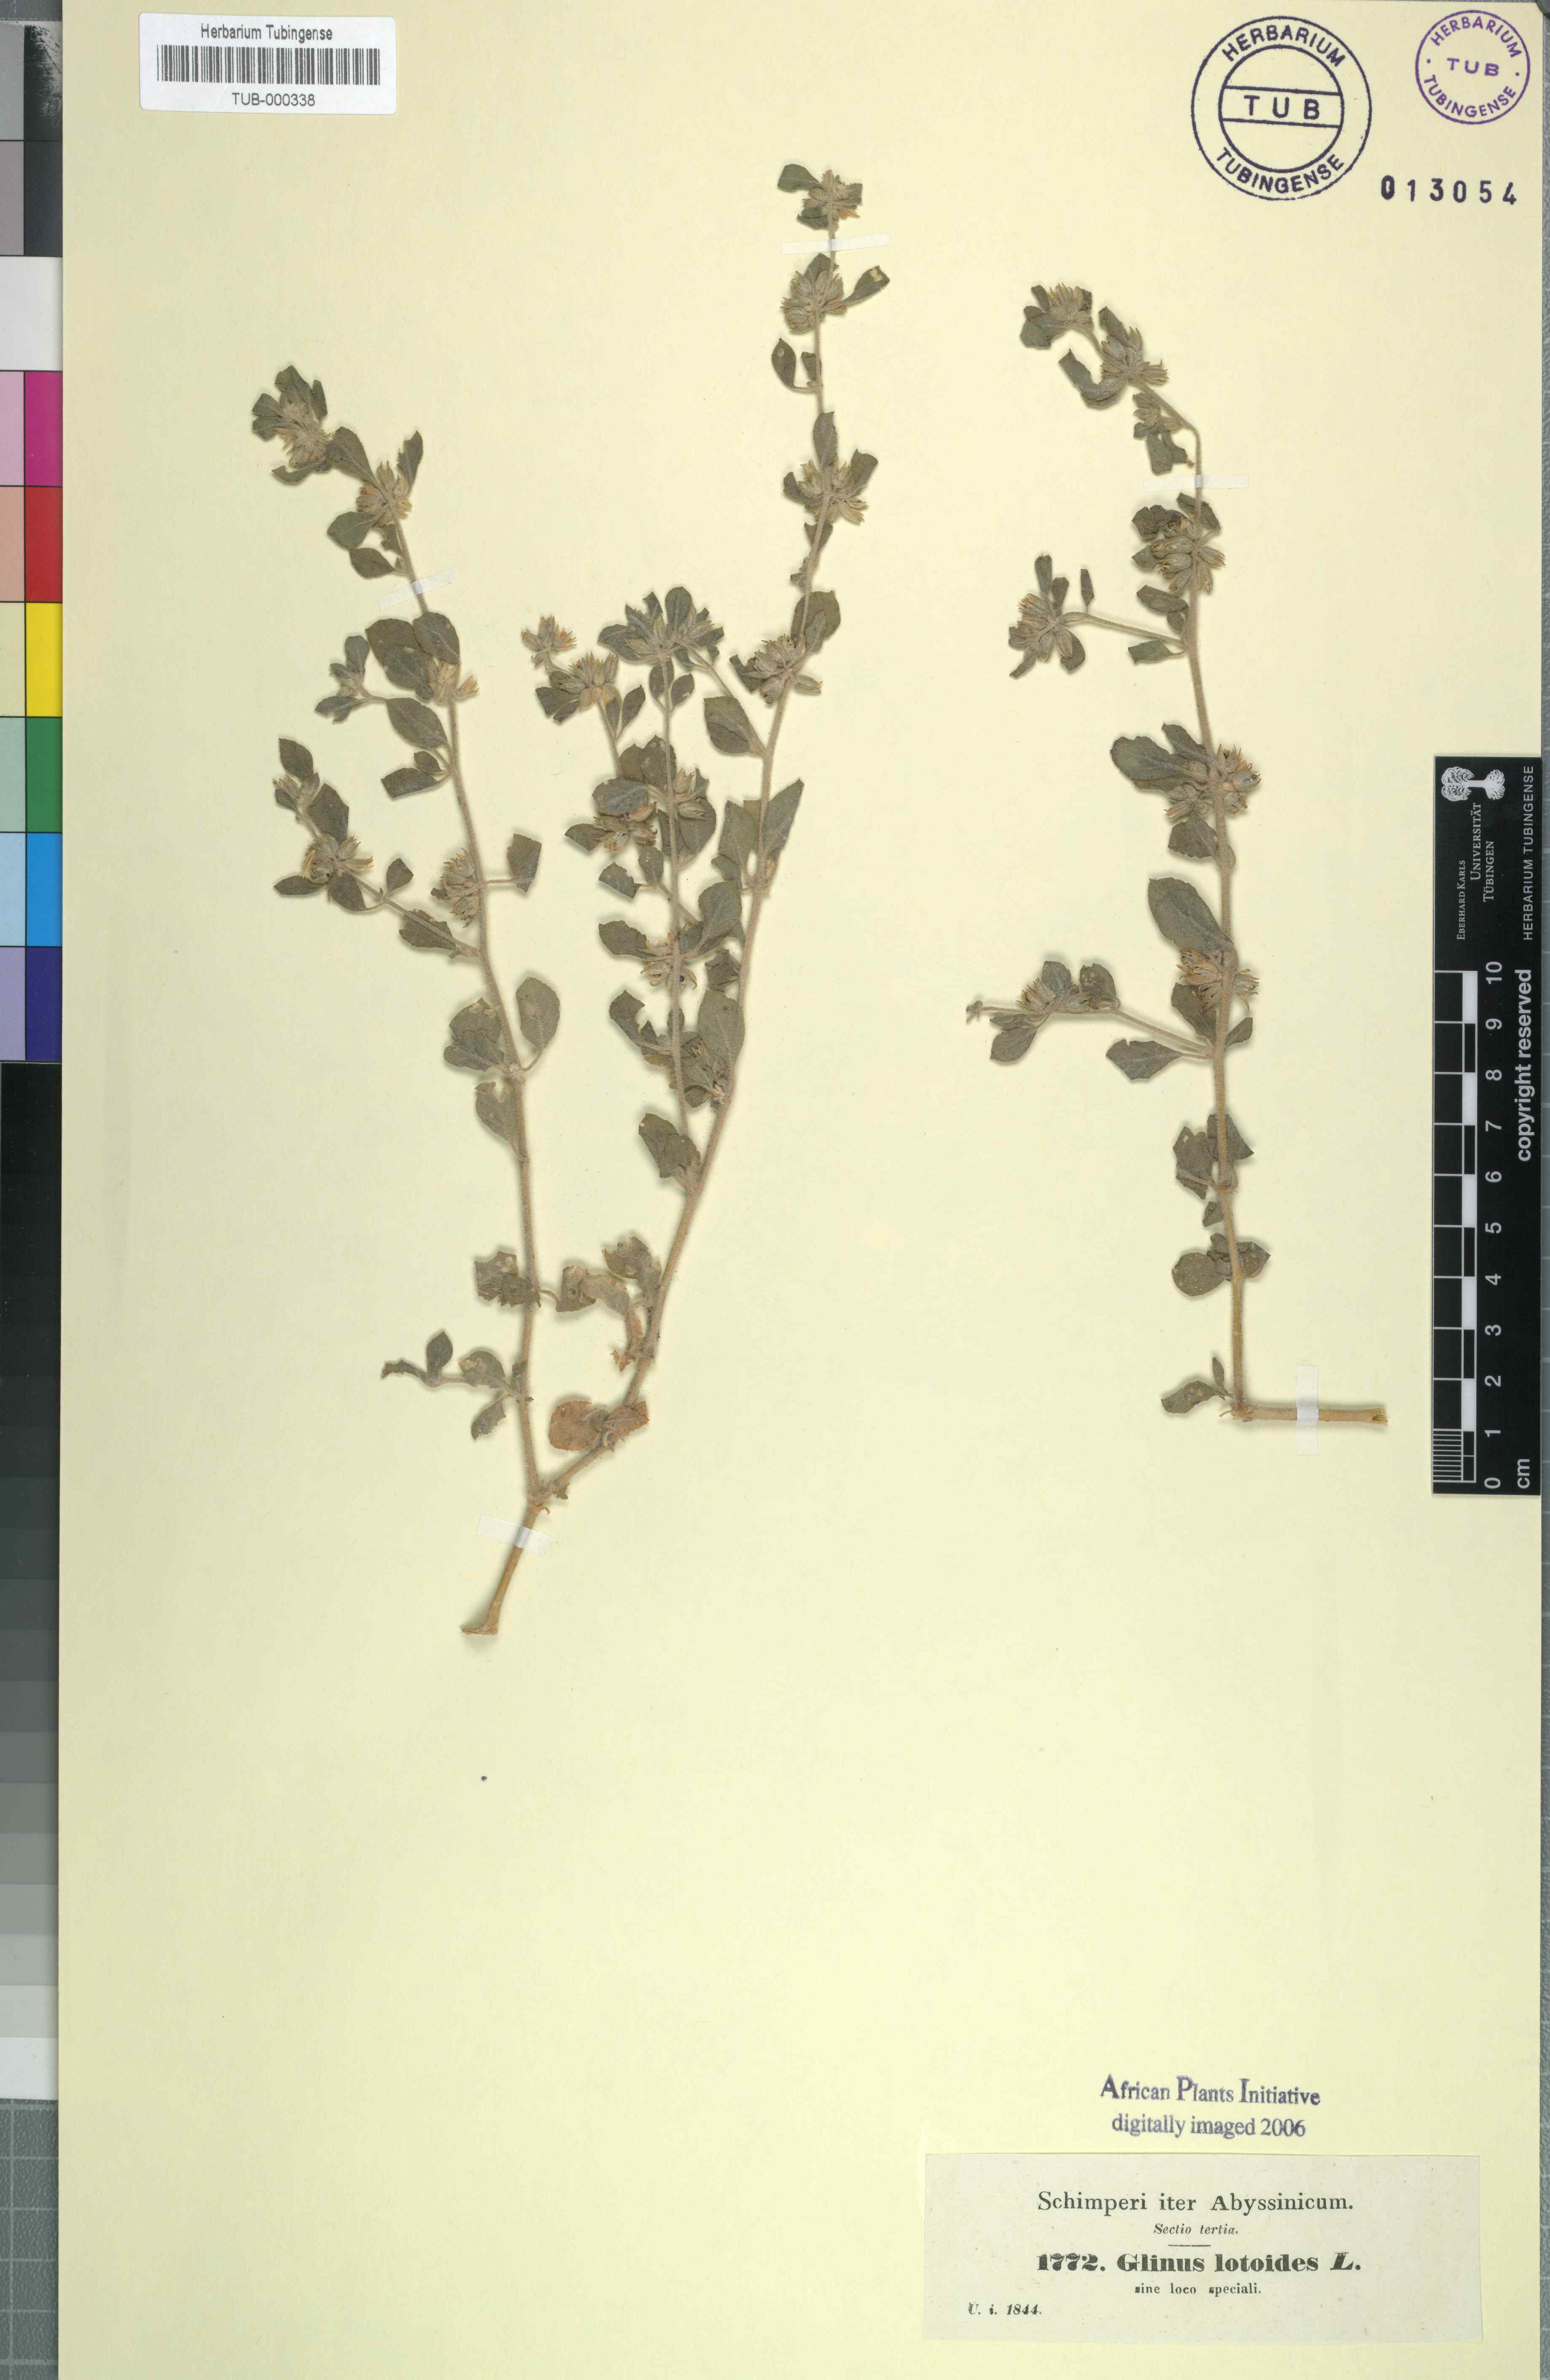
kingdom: Plantae
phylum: Tracheophyta
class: Magnoliopsida
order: Caryophyllales
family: Molluginaceae
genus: Glinus
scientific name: Glinus lotoides
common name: Lotus sweetjuice
